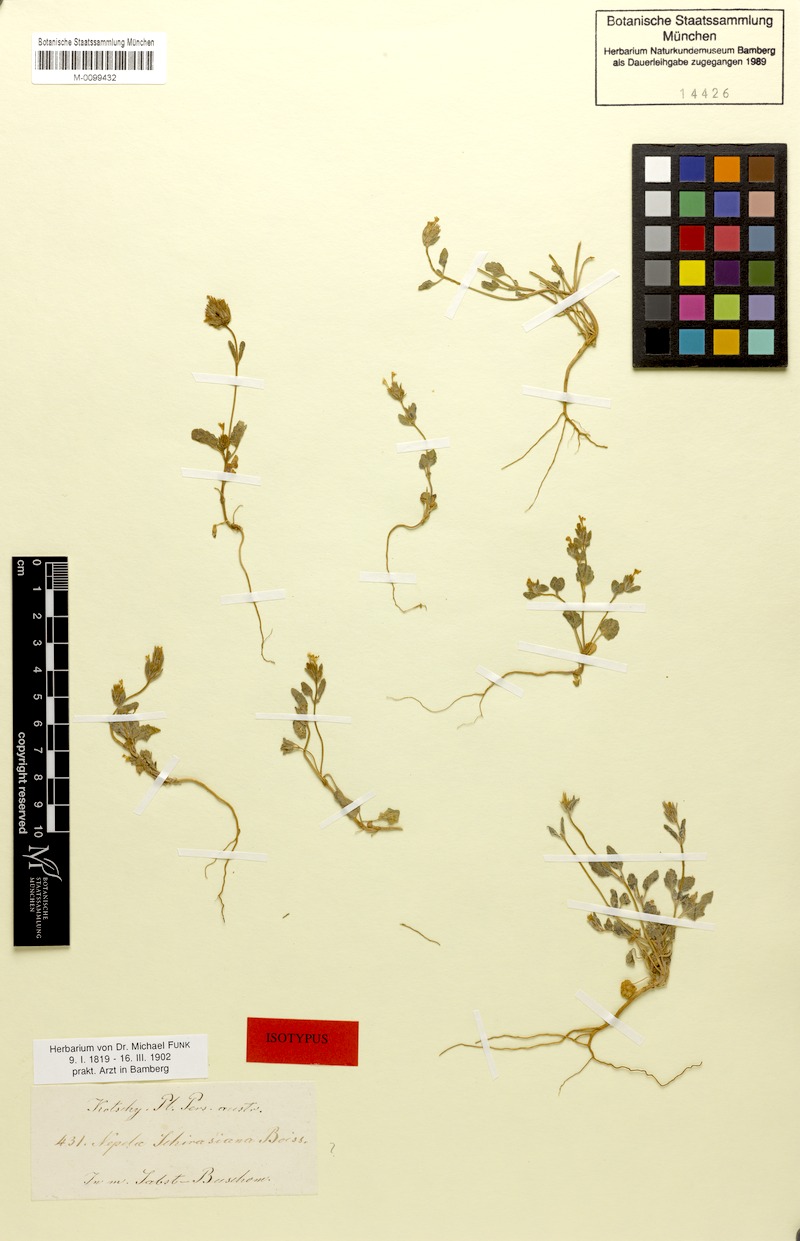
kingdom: Plantae
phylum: Tracheophyta
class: Magnoliopsida
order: Lamiales
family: Lamiaceae
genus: Nepeta
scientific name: Nepeta schiraziana
